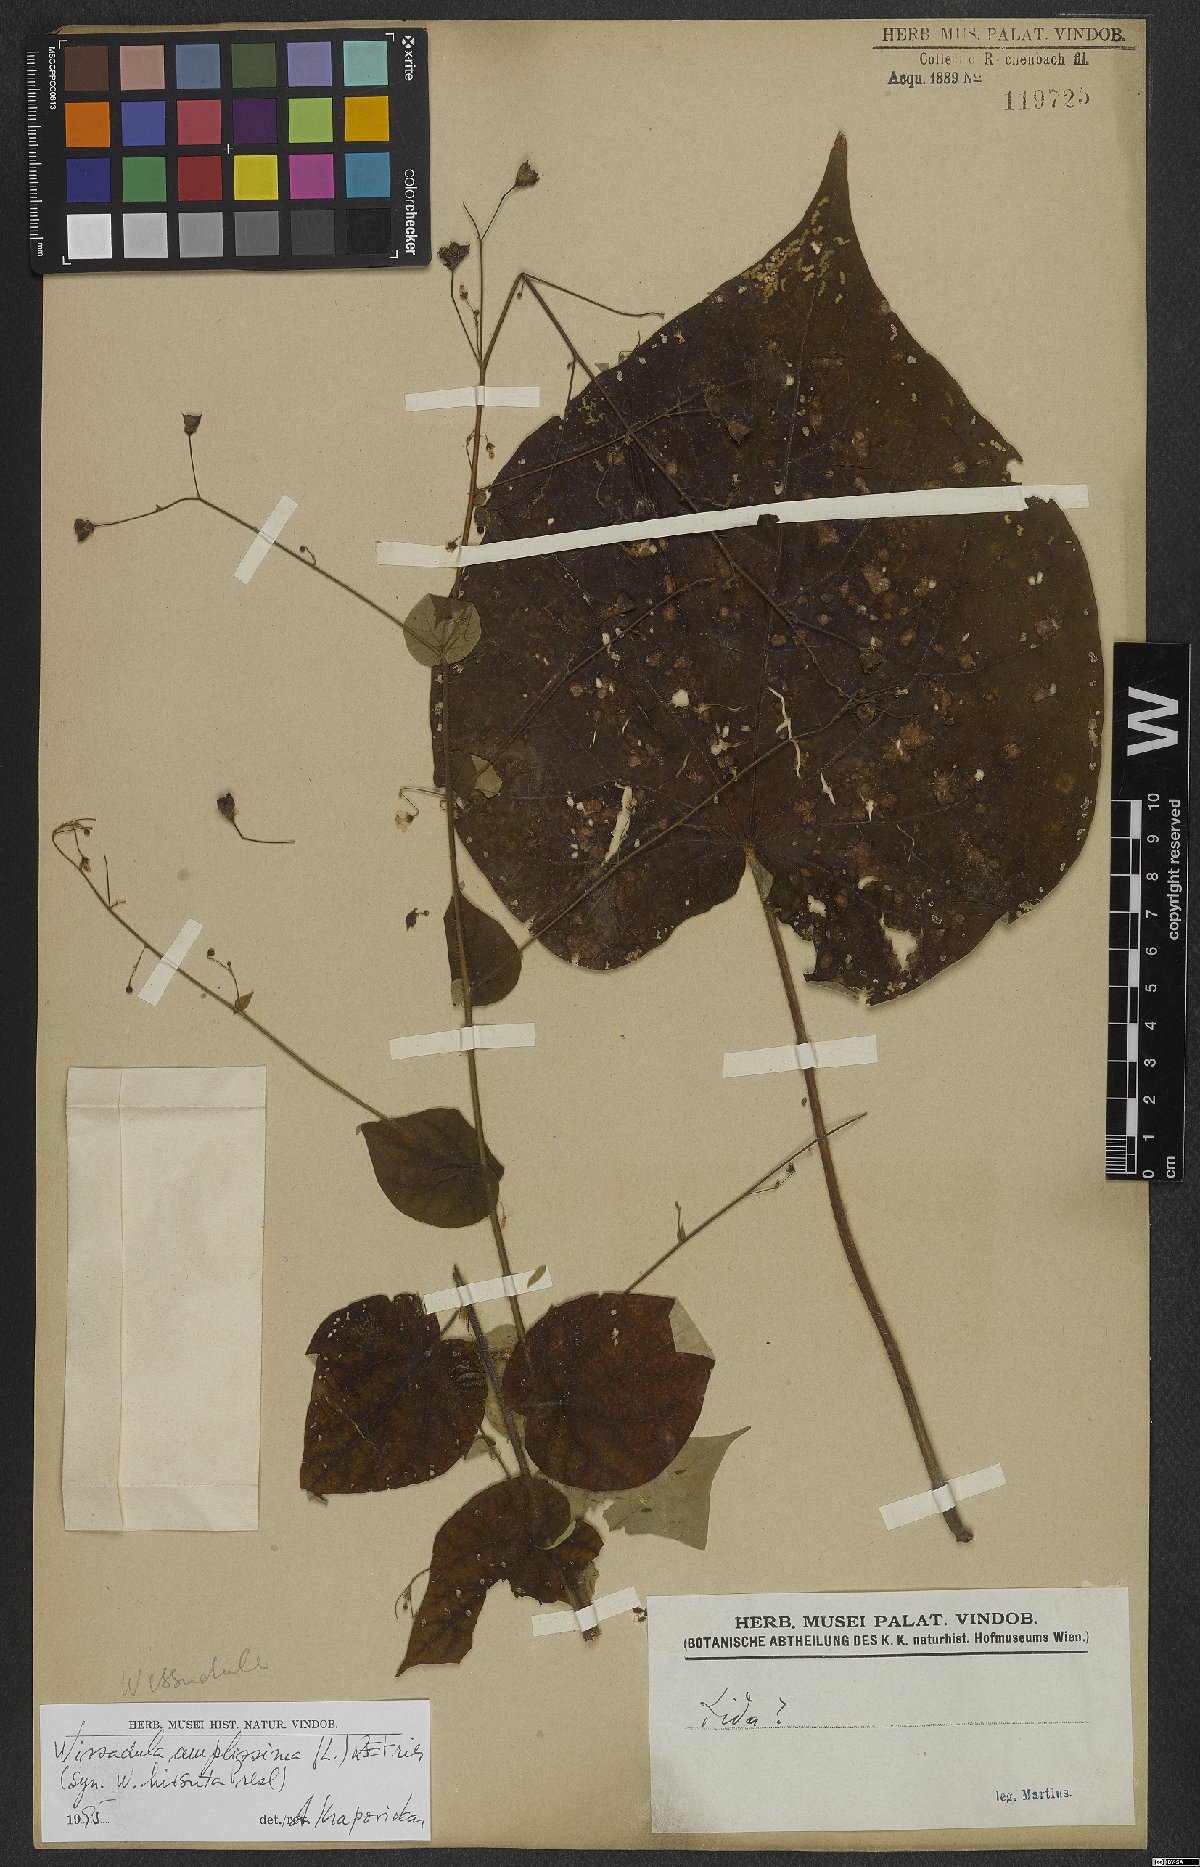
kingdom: Plantae
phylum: Tracheophyta
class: Magnoliopsida
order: Malvales
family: Malvaceae
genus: Wissadula
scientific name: Wissadula amplissima
